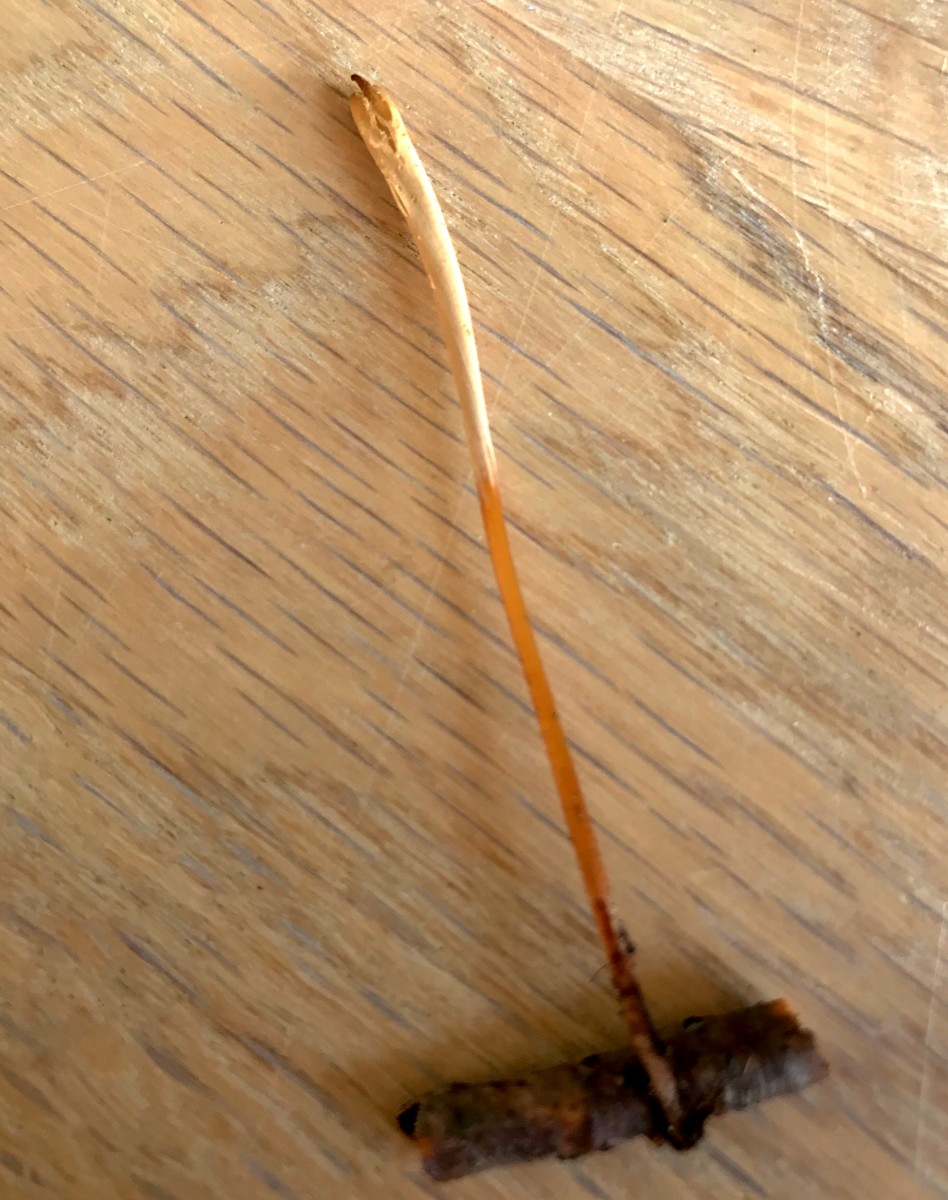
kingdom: Fungi
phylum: Basidiomycota
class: Agaricomycetes
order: Agaricales
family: Typhulaceae
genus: Typhula
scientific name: Typhula fistulosa
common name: pibet rørkølle
